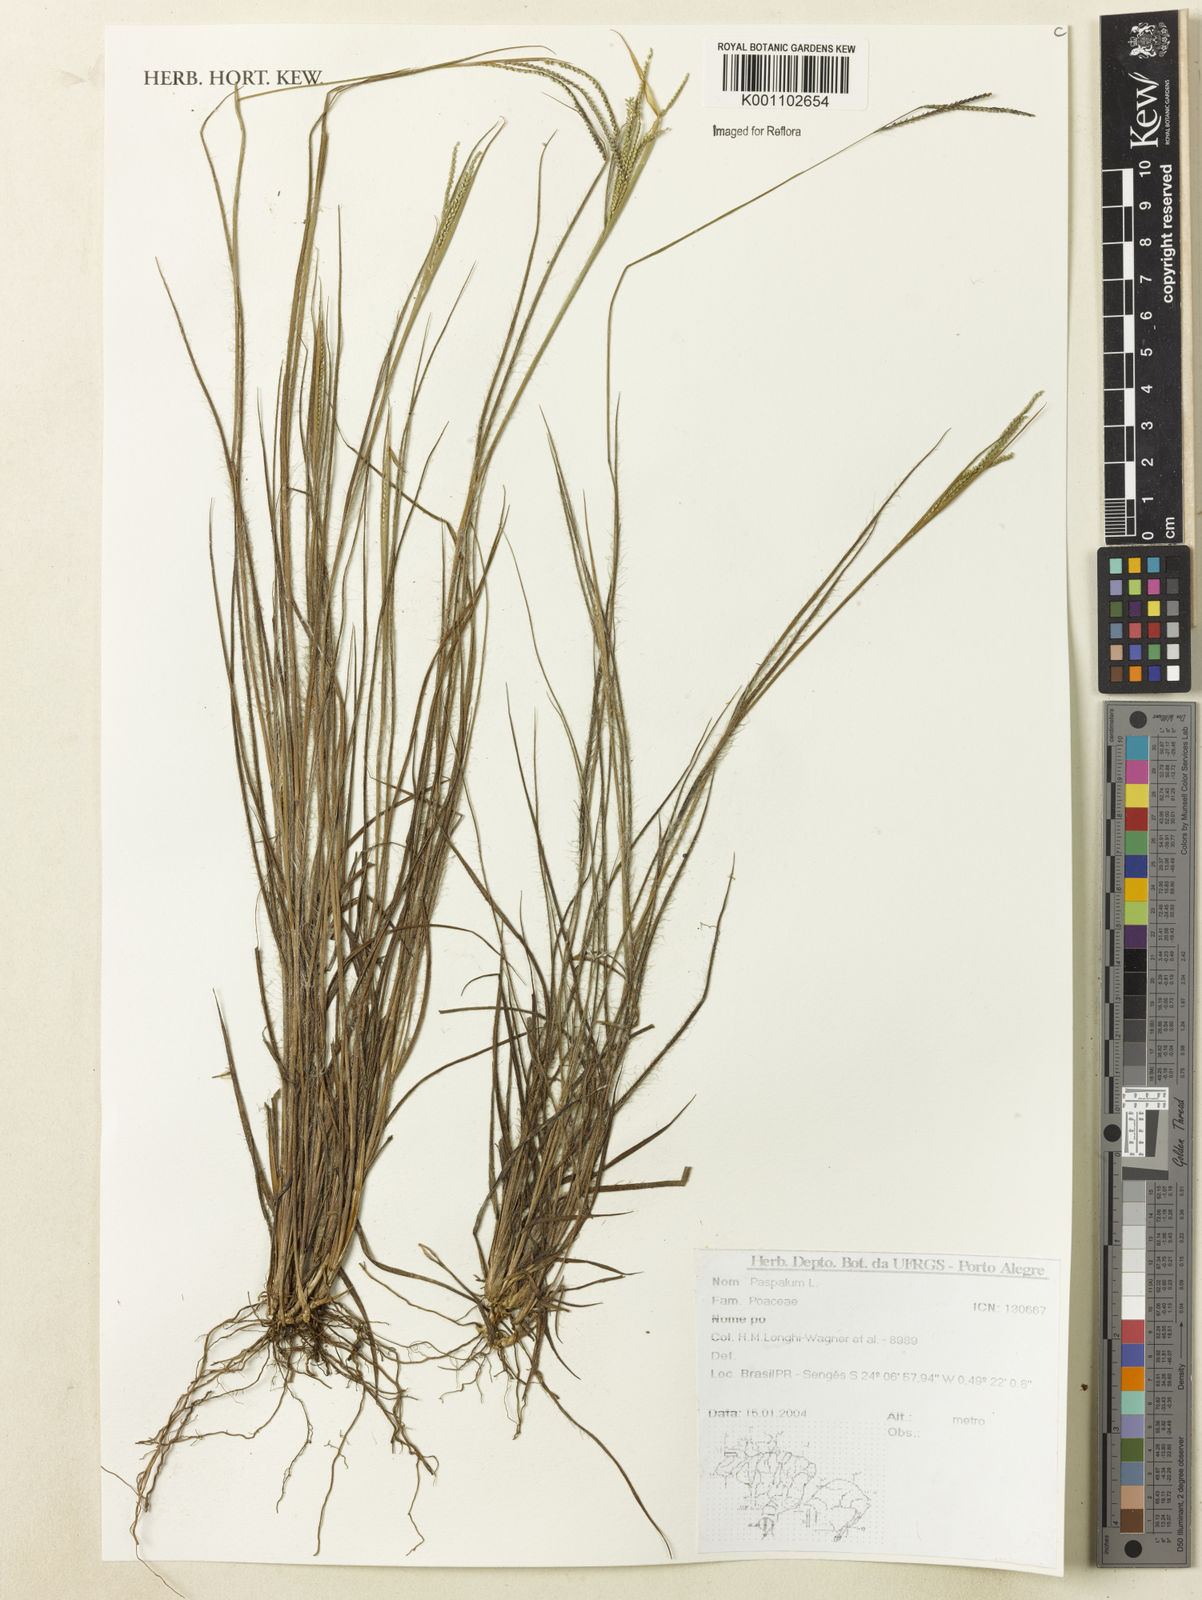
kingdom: Plantae
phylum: Tracheophyta
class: Liliopsida
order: Poales
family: Poaceae
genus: Paspalum
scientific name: Paspalum
